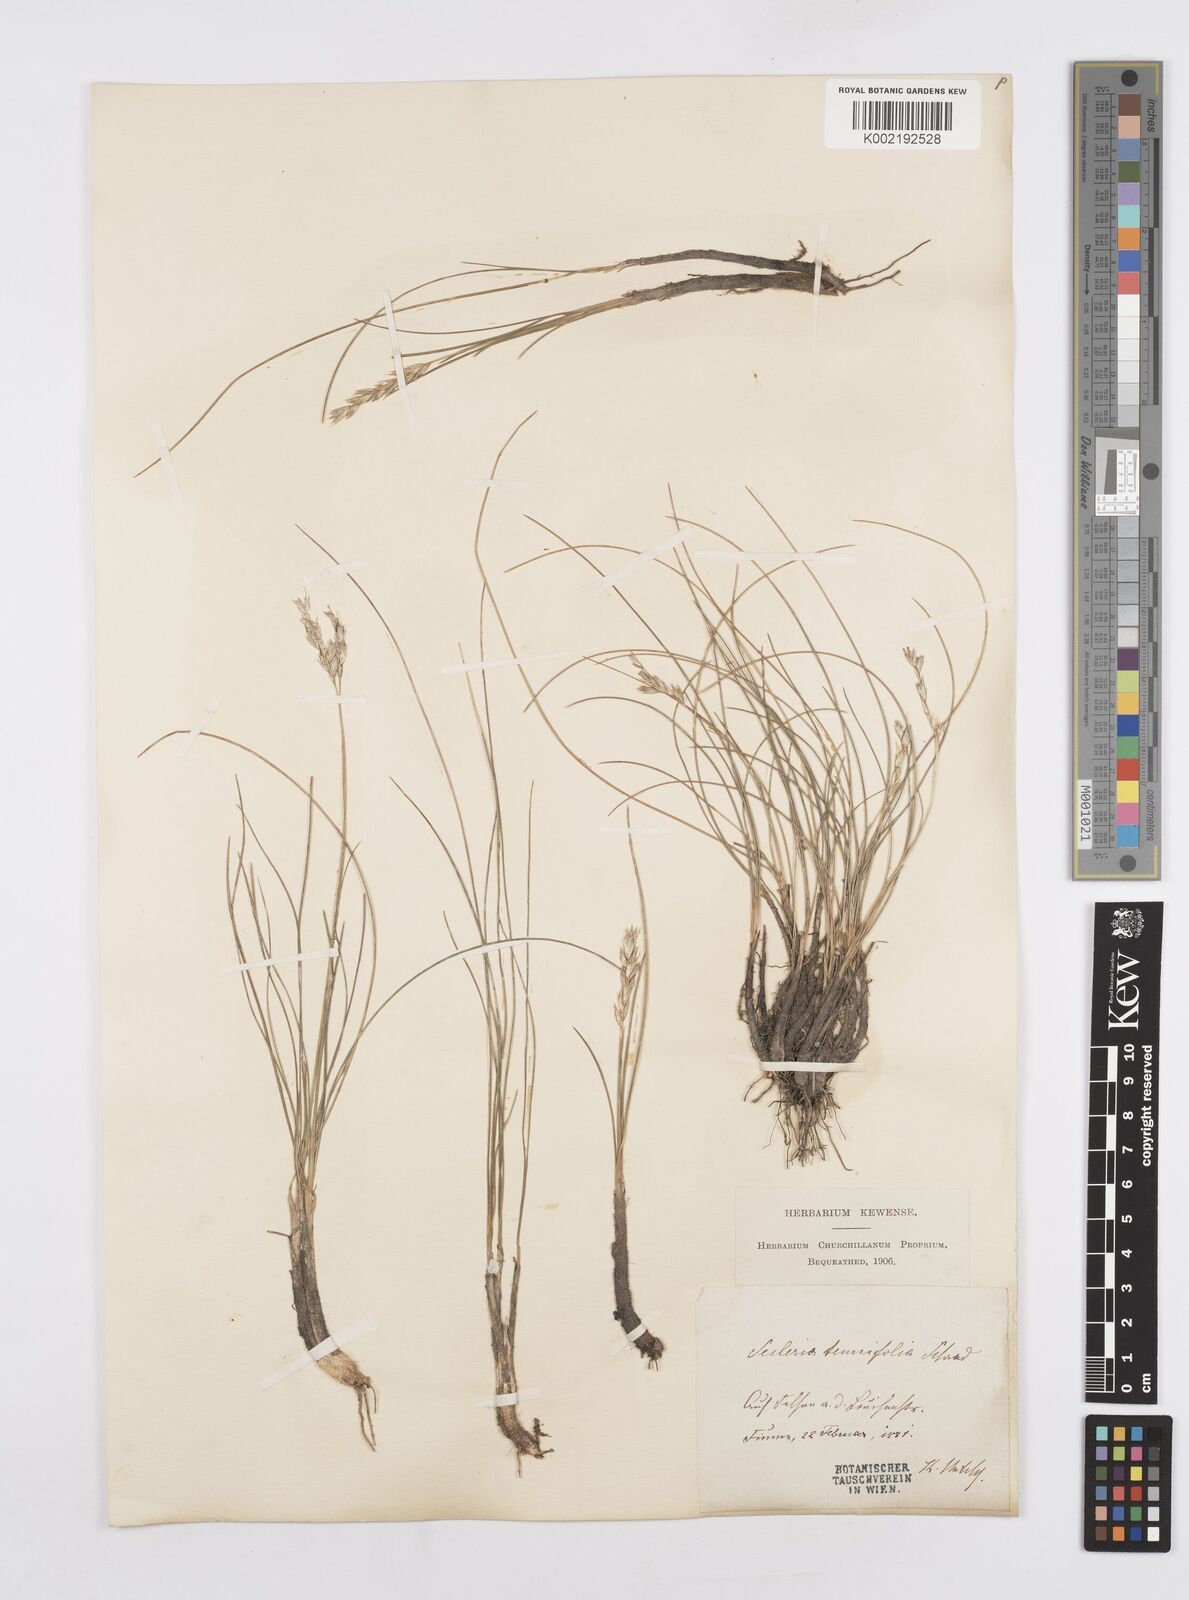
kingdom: Plantae
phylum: Tracheophyta
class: Liliopsida
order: Poales
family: Poaceae
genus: Sesleria
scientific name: Sesleria juncifolia
